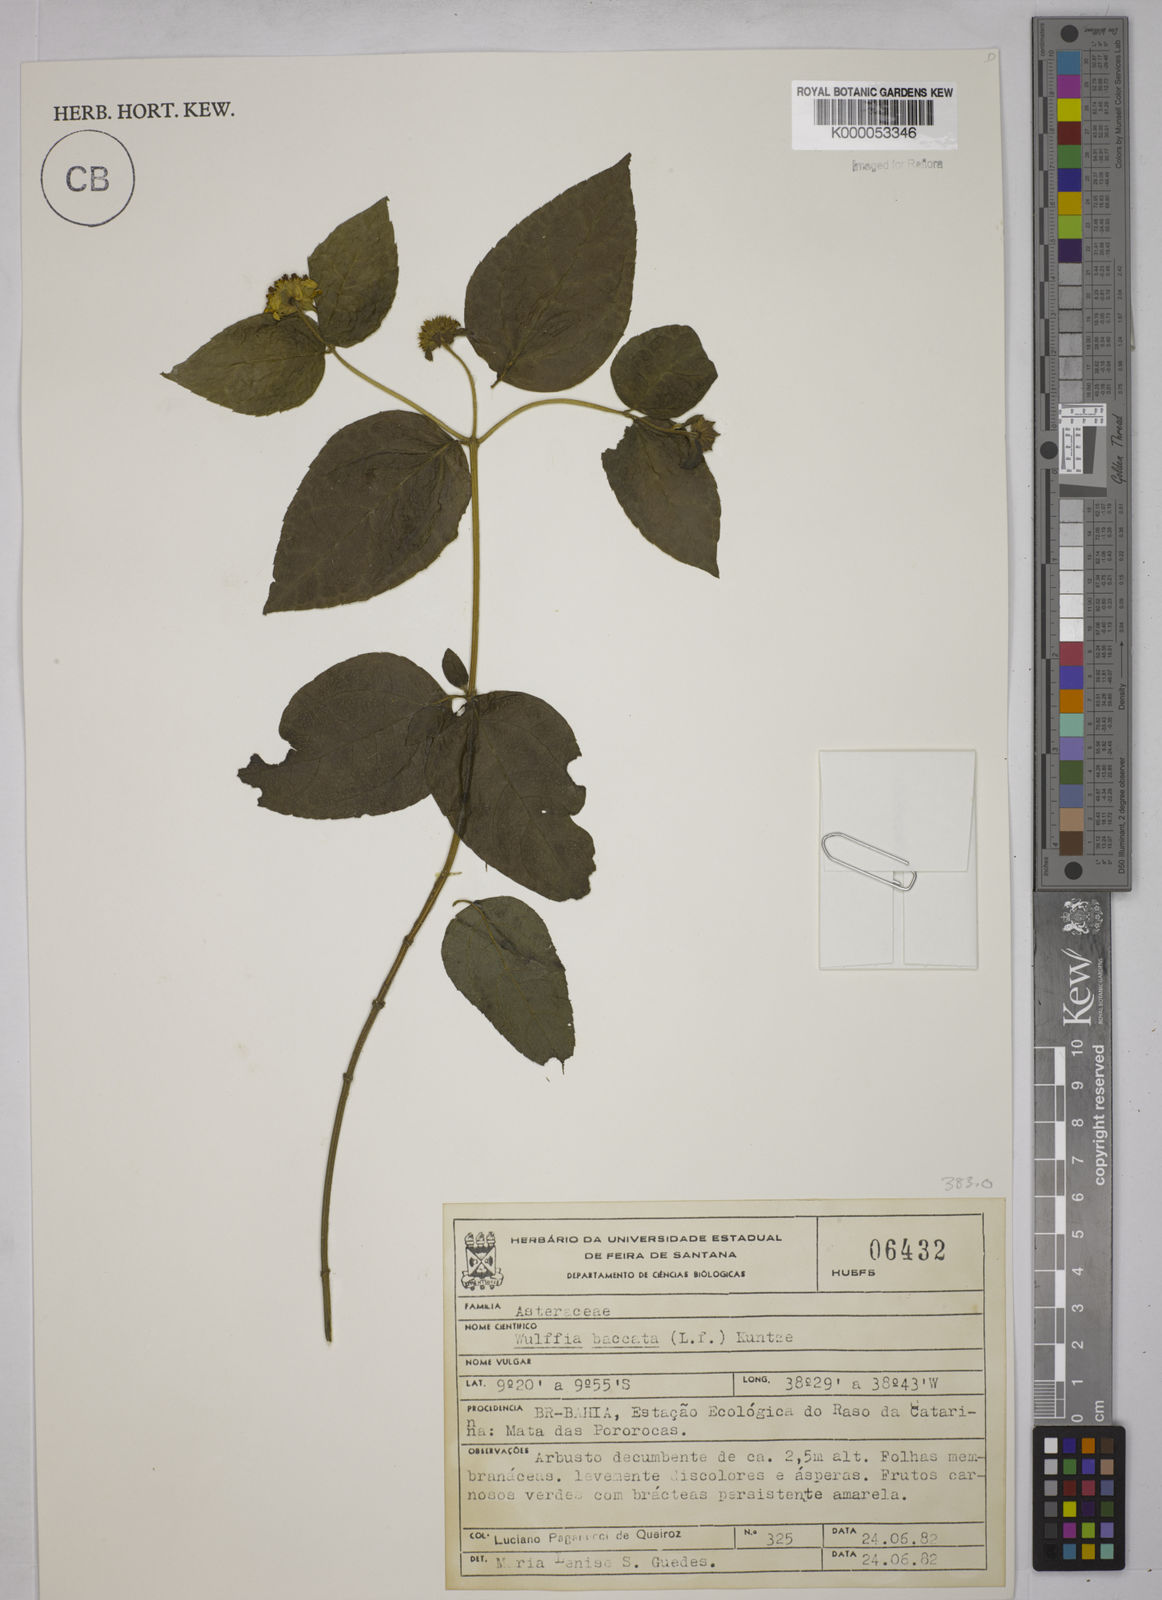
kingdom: Plantae
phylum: Tracheophyta
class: Magnoliopsida
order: Asterales
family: Asteraceae
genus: Tilesia
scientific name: Tilesia baccata
